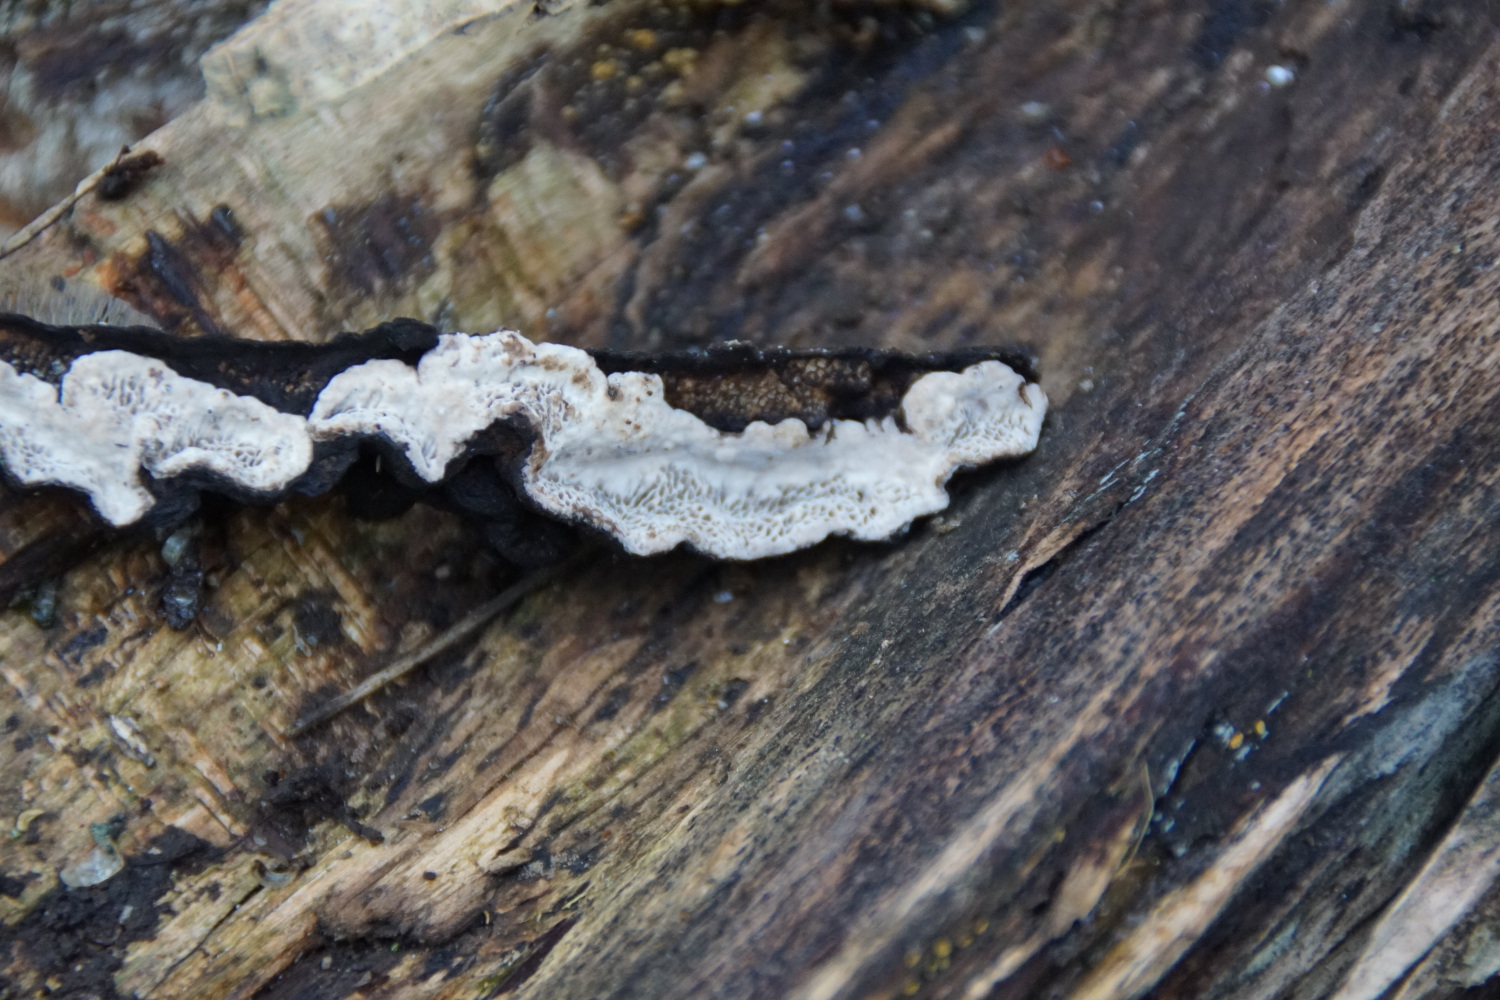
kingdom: Fungi
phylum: Basidiomycota
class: Agaricomycetes
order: Polyporales
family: Polyporaceae
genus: Podofomes
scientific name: Podofomes mollis
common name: blød begporesvamp
